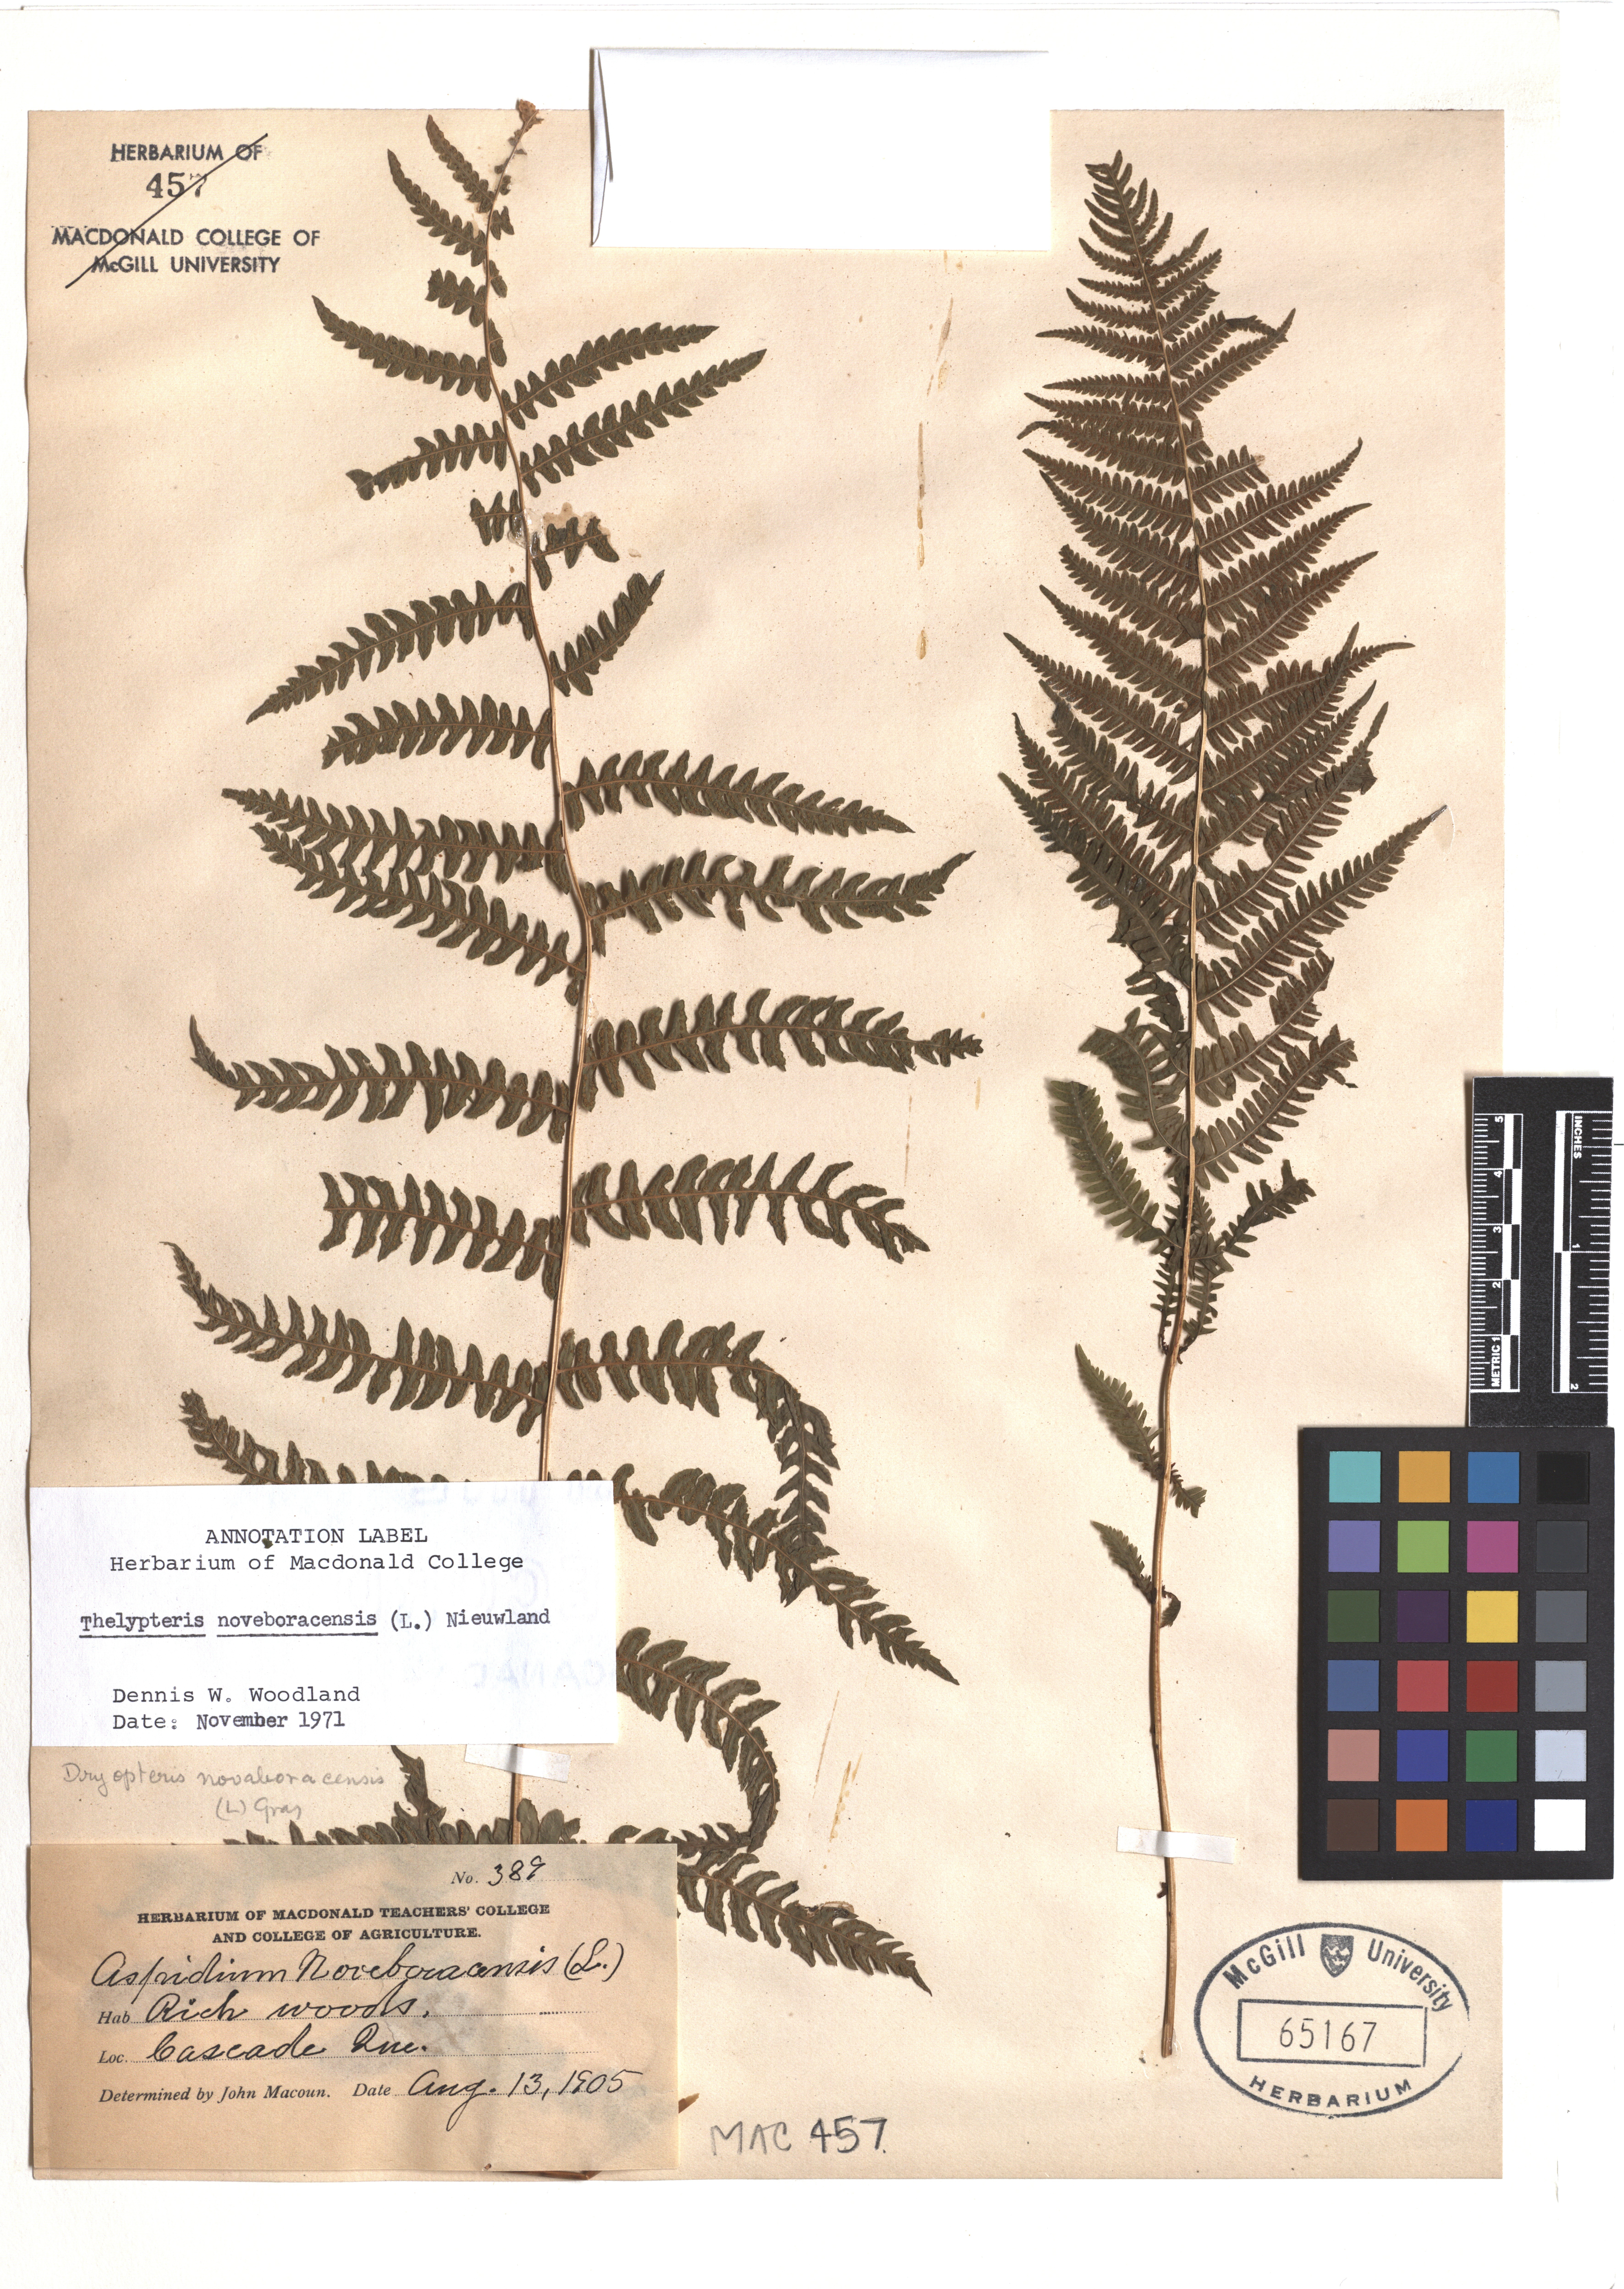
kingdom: Plantae
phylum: Tracheophyta
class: Polypodiopsida
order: Polypodiales
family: Thelypteridaceae
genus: Amauropelta
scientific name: Amauropelta noveboracensis
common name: New york fern
